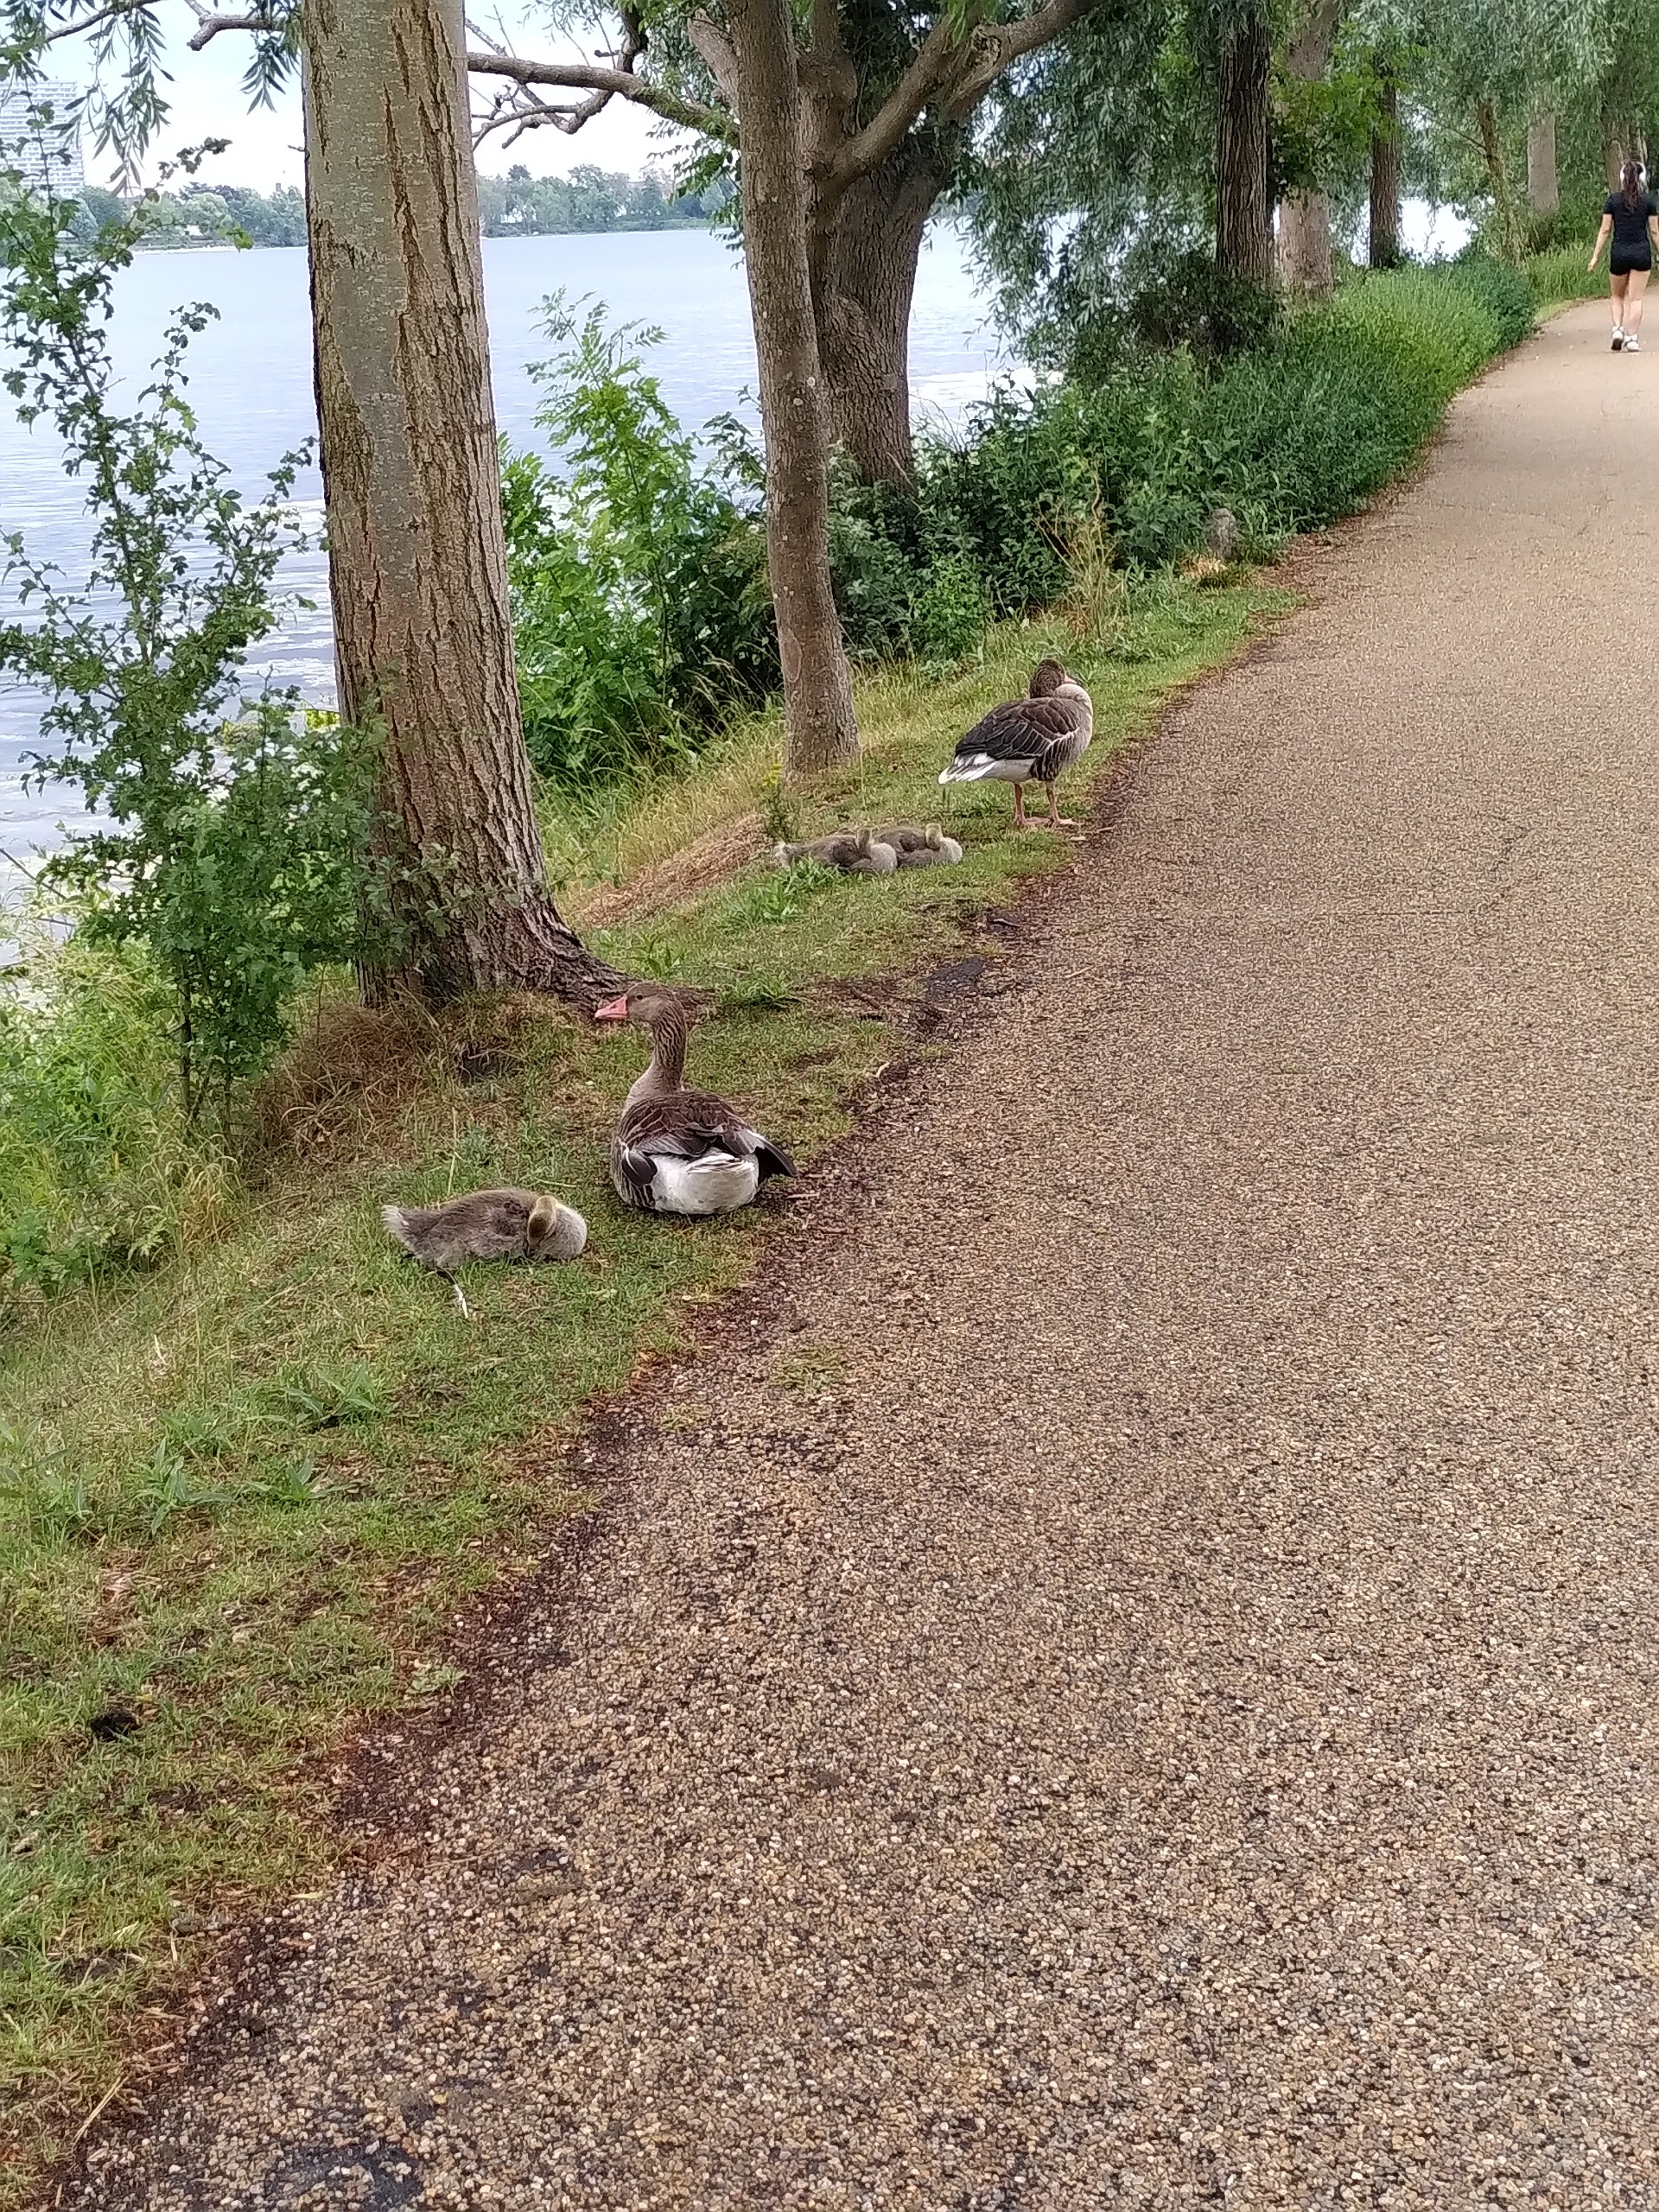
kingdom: Animalia
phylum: Chordata
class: Aves
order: Anseriformes
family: Anatidae
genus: Anser
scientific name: Anser anser
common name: Grågås
